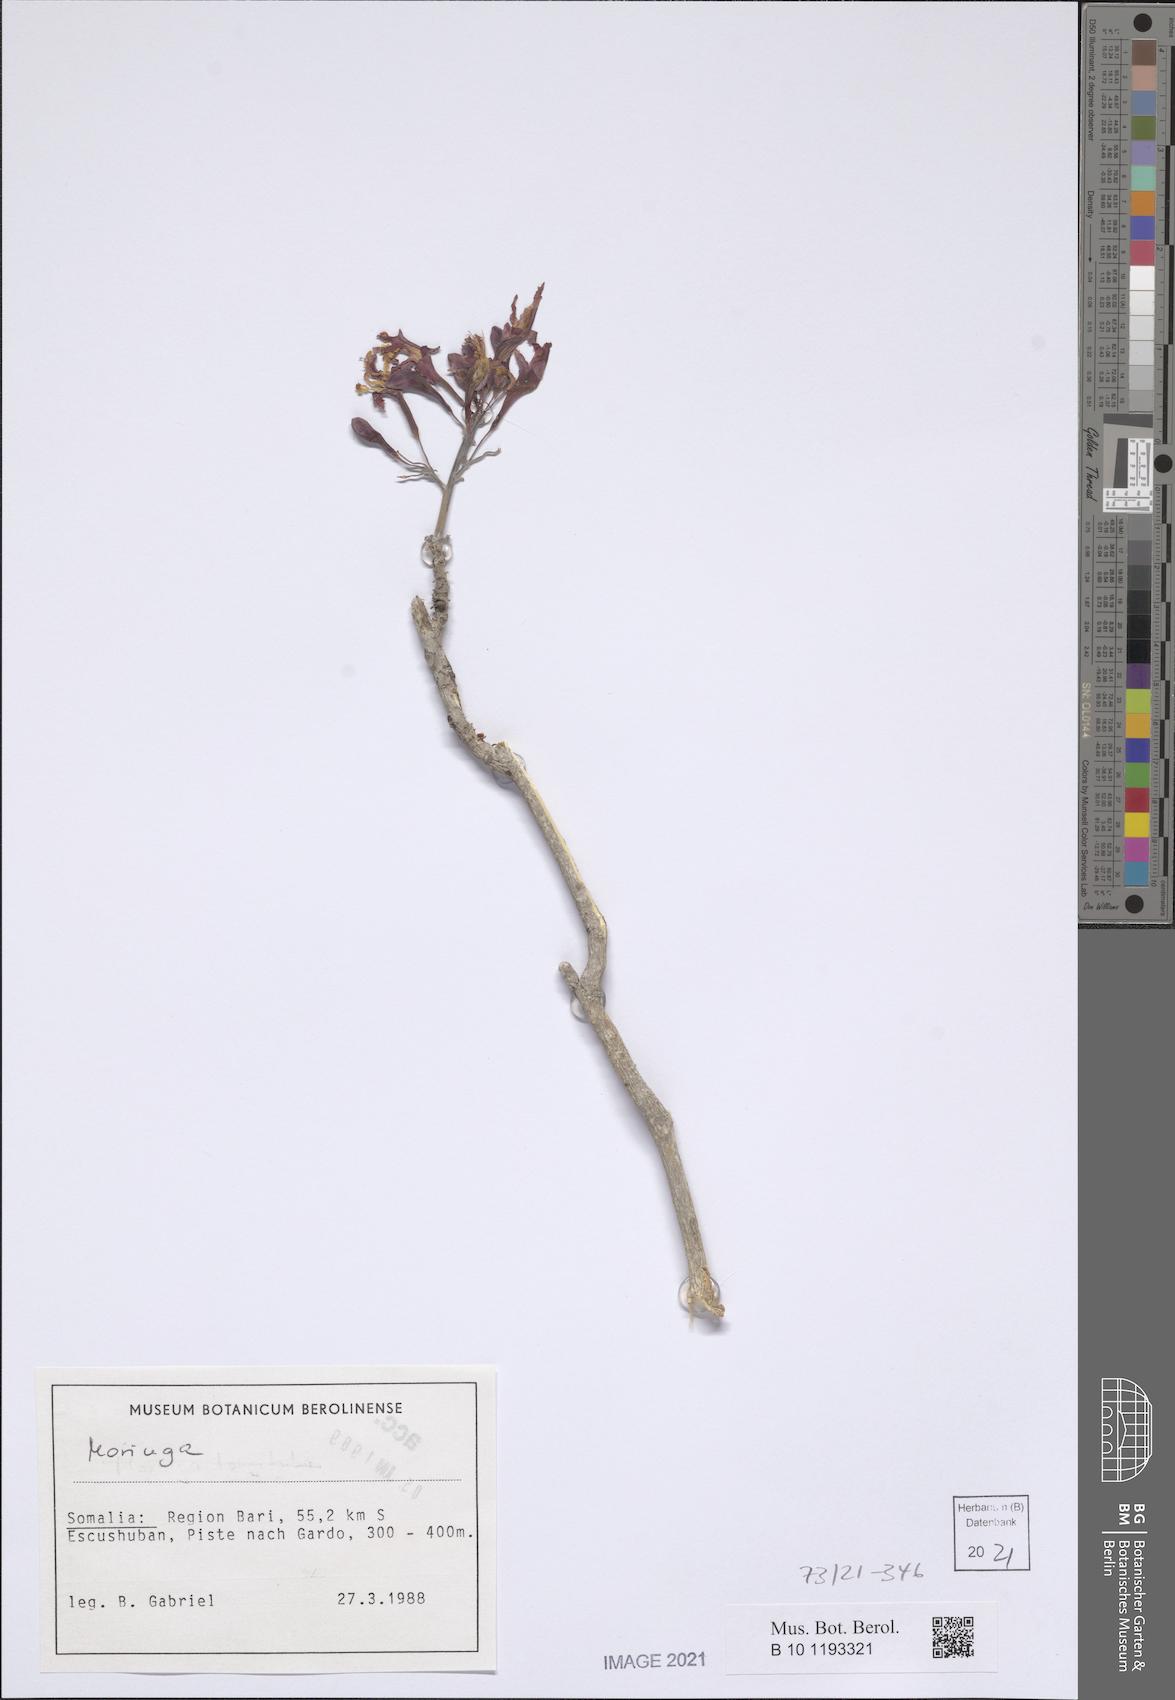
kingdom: Plantae
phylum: Tracheophyta
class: Magnoliopsida
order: Brassicales
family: Moringaceae
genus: Moringa
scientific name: Moringa
